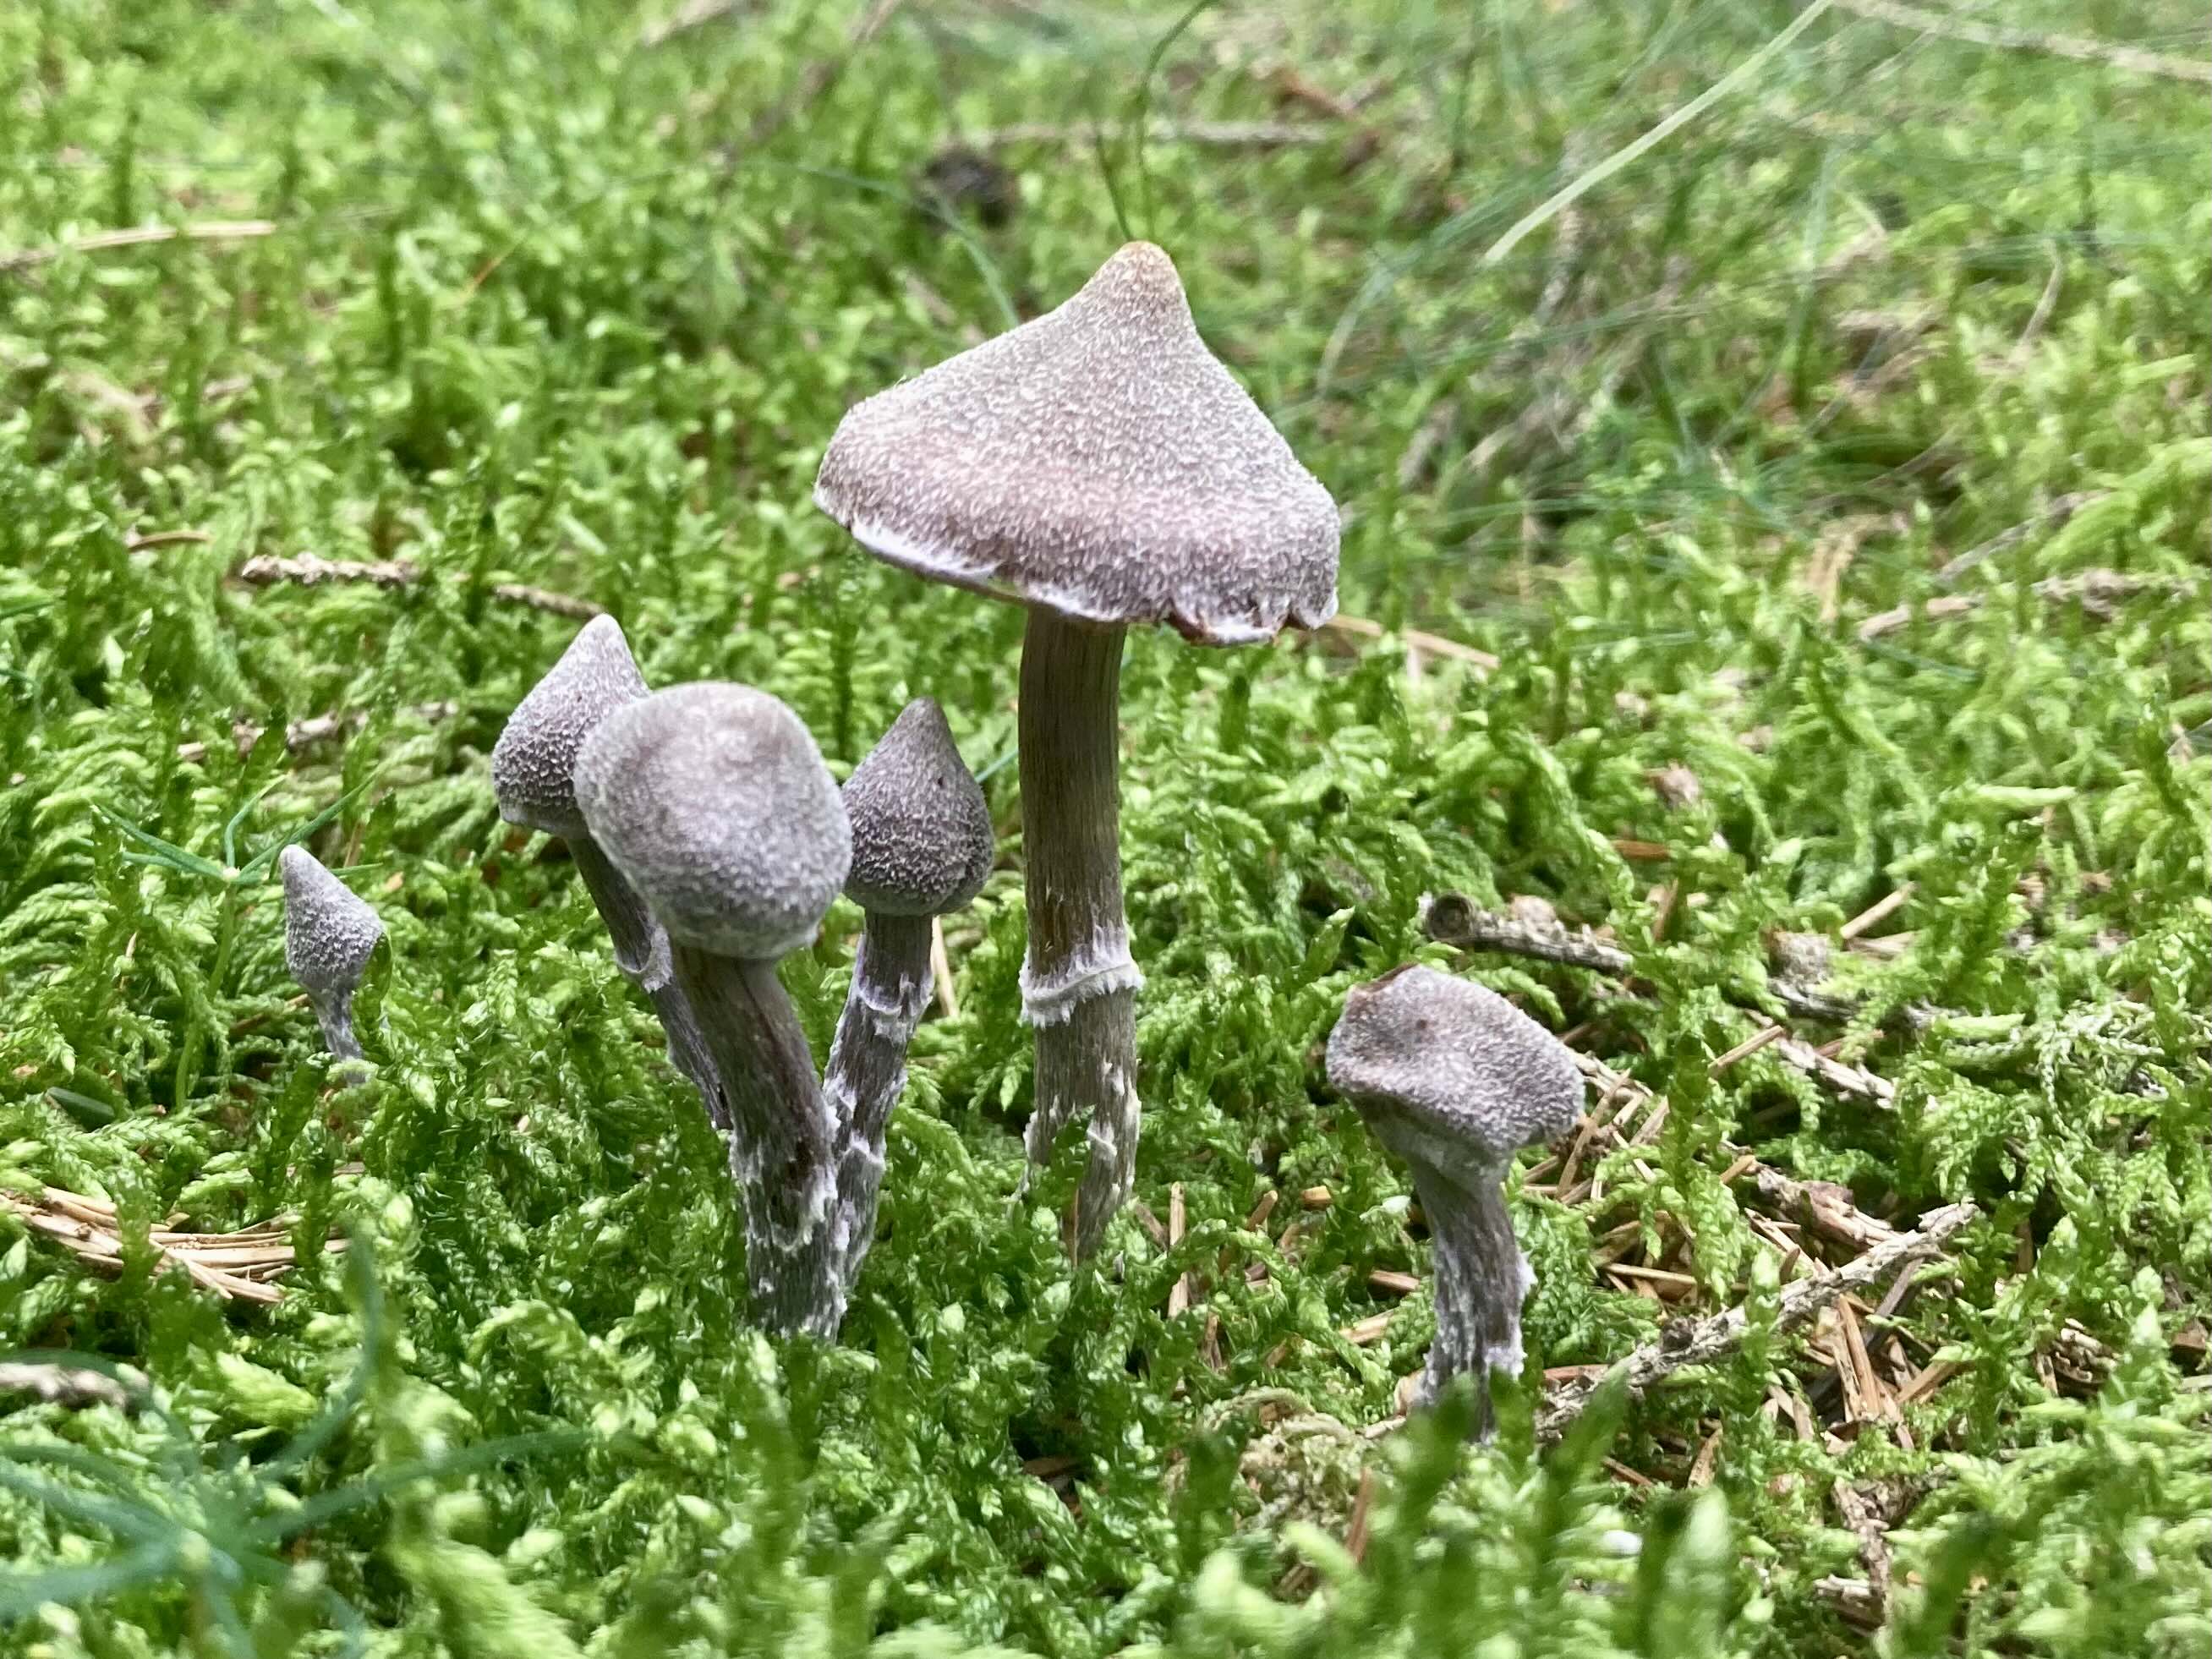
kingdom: Fungi
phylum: Basidiomycota
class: Agaricomycetes
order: Agaricales
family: Cortinariaceae
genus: Cortinarius
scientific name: Cortinarius flexipes
